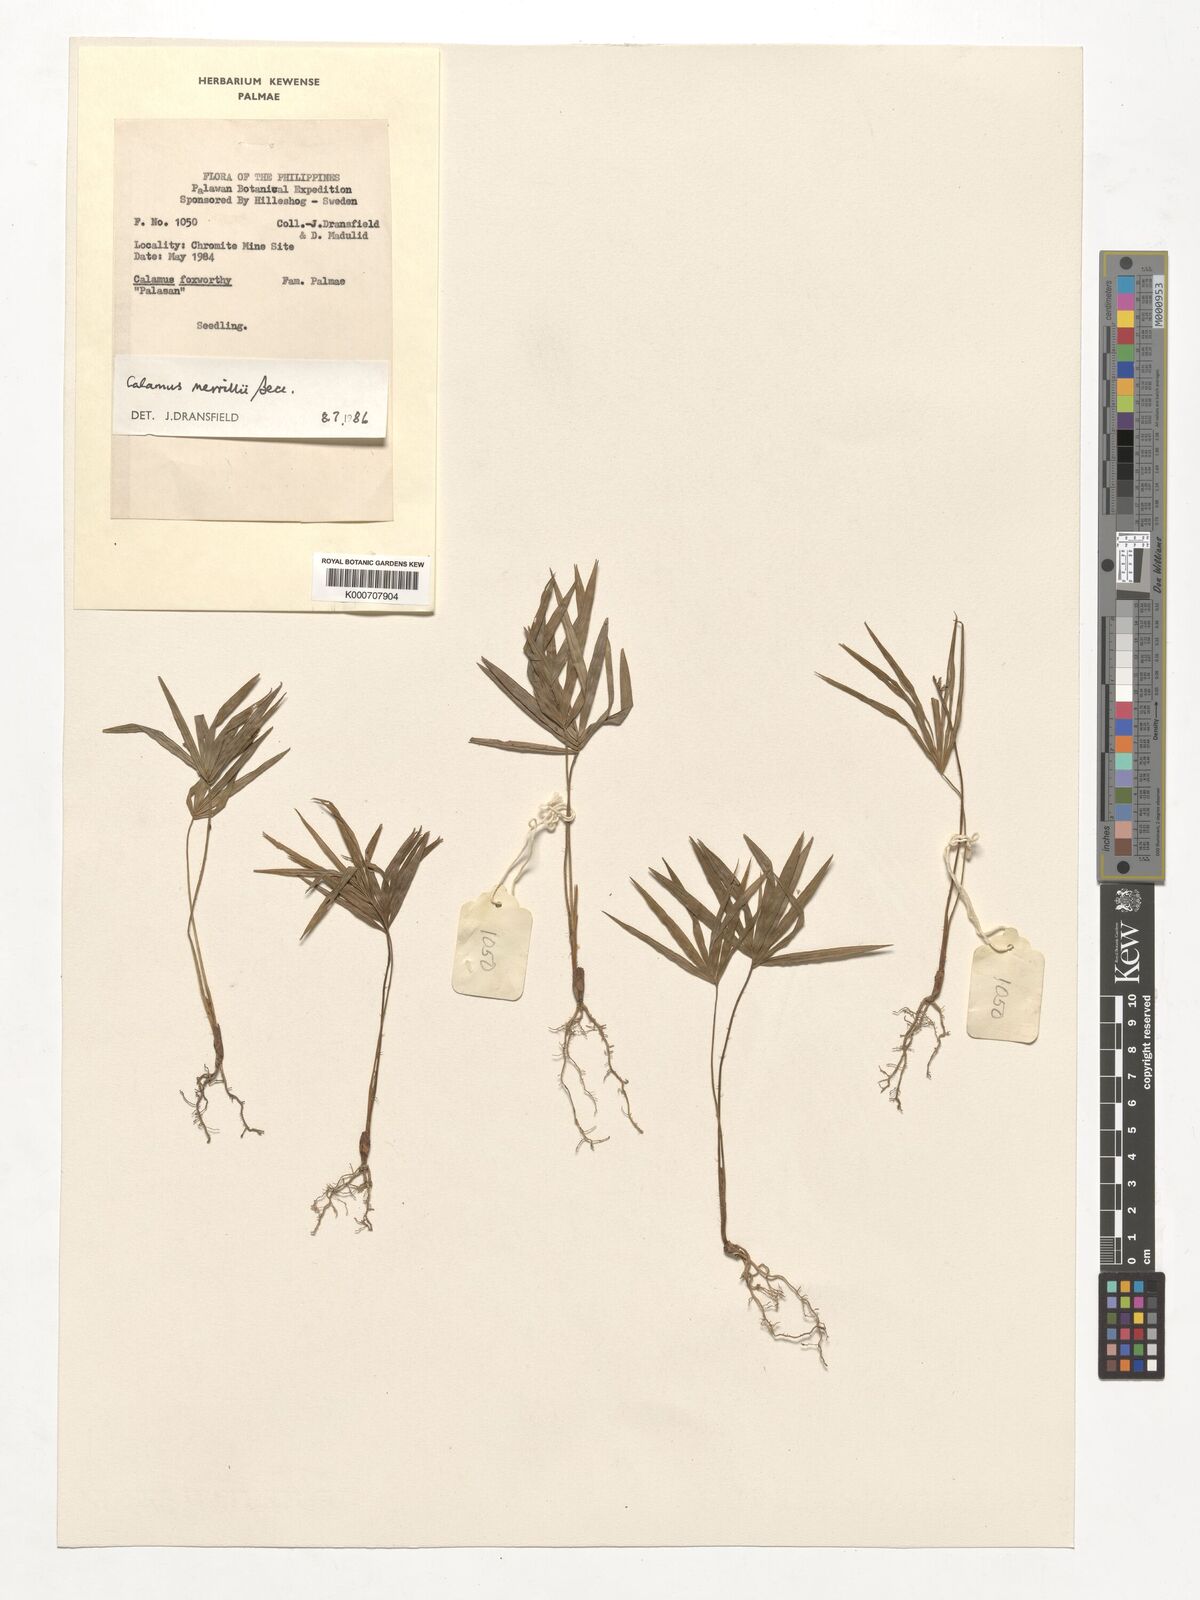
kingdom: Plantae
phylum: Tracheophyta
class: Liliopsida
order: Arecales
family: Arecaceae
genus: Calamus
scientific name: Calamus zollingeri
